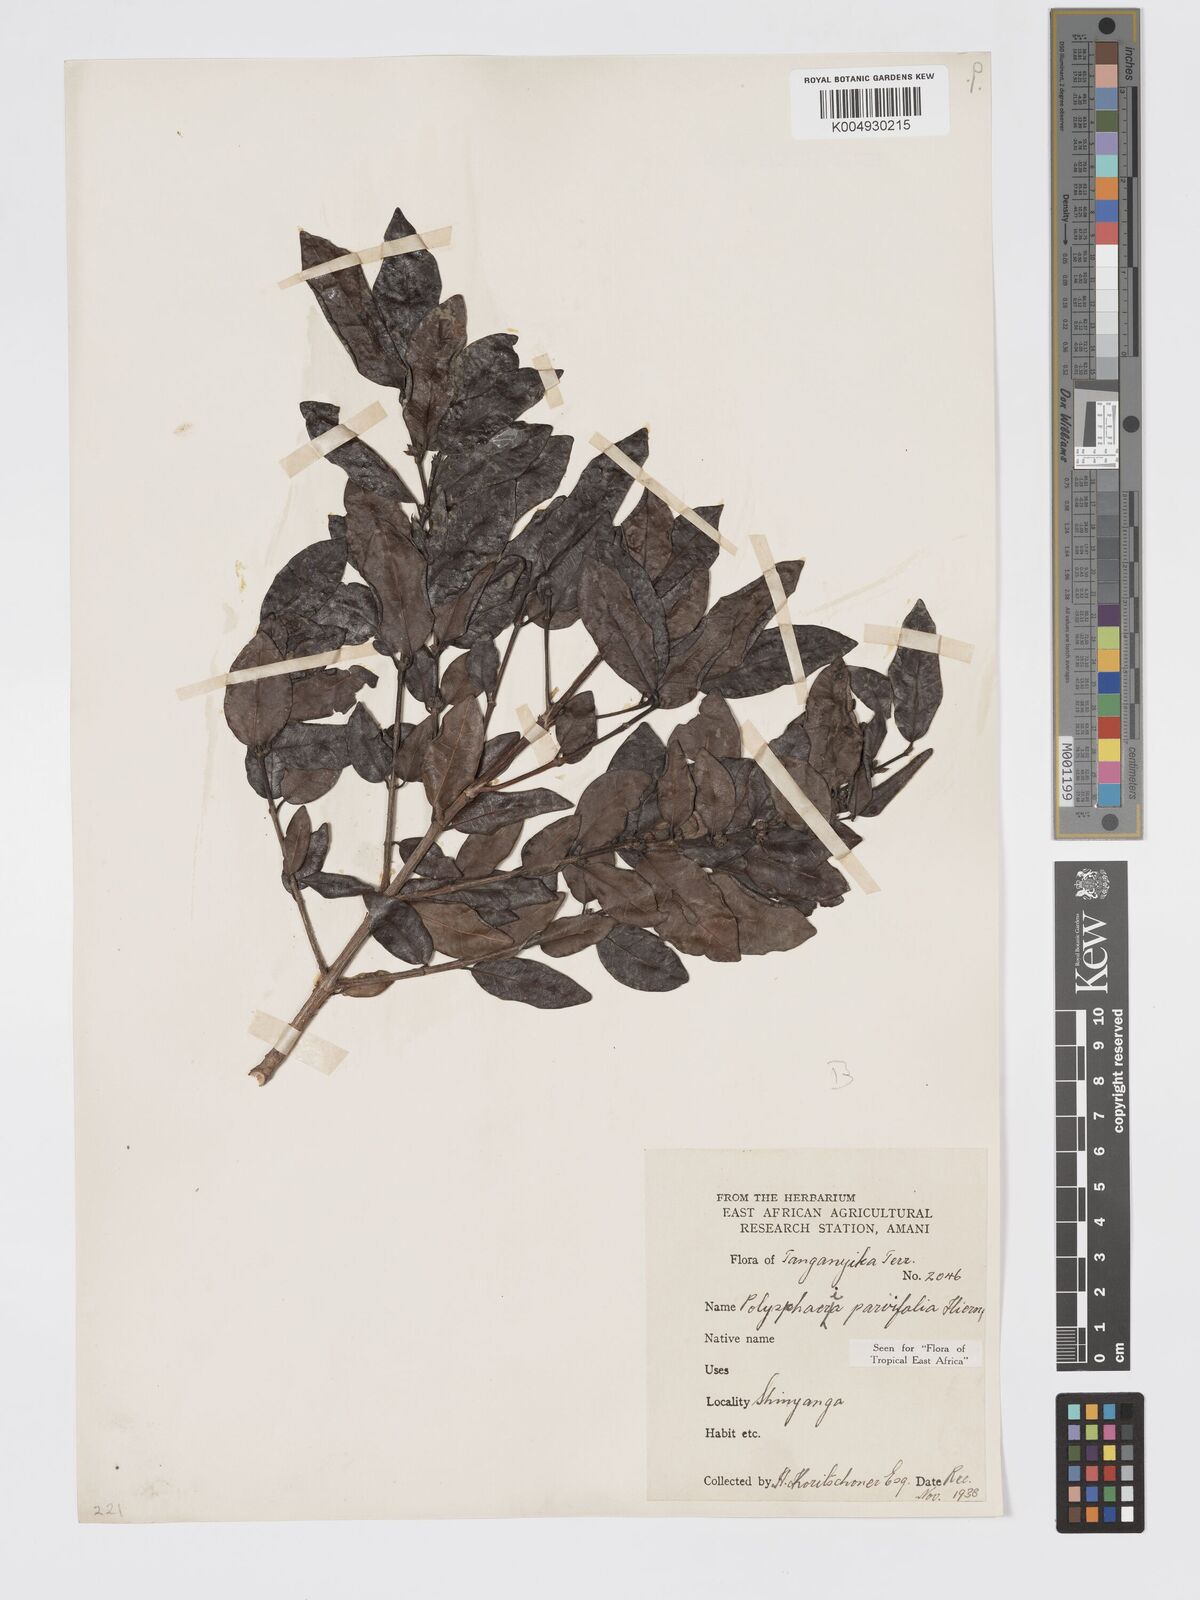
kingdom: Plantae
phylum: Tracheophyta
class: Magnoliopsida
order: Gentianales
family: Rubiaceae
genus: Polysphaeria
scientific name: Polysphaeria parvifolia
